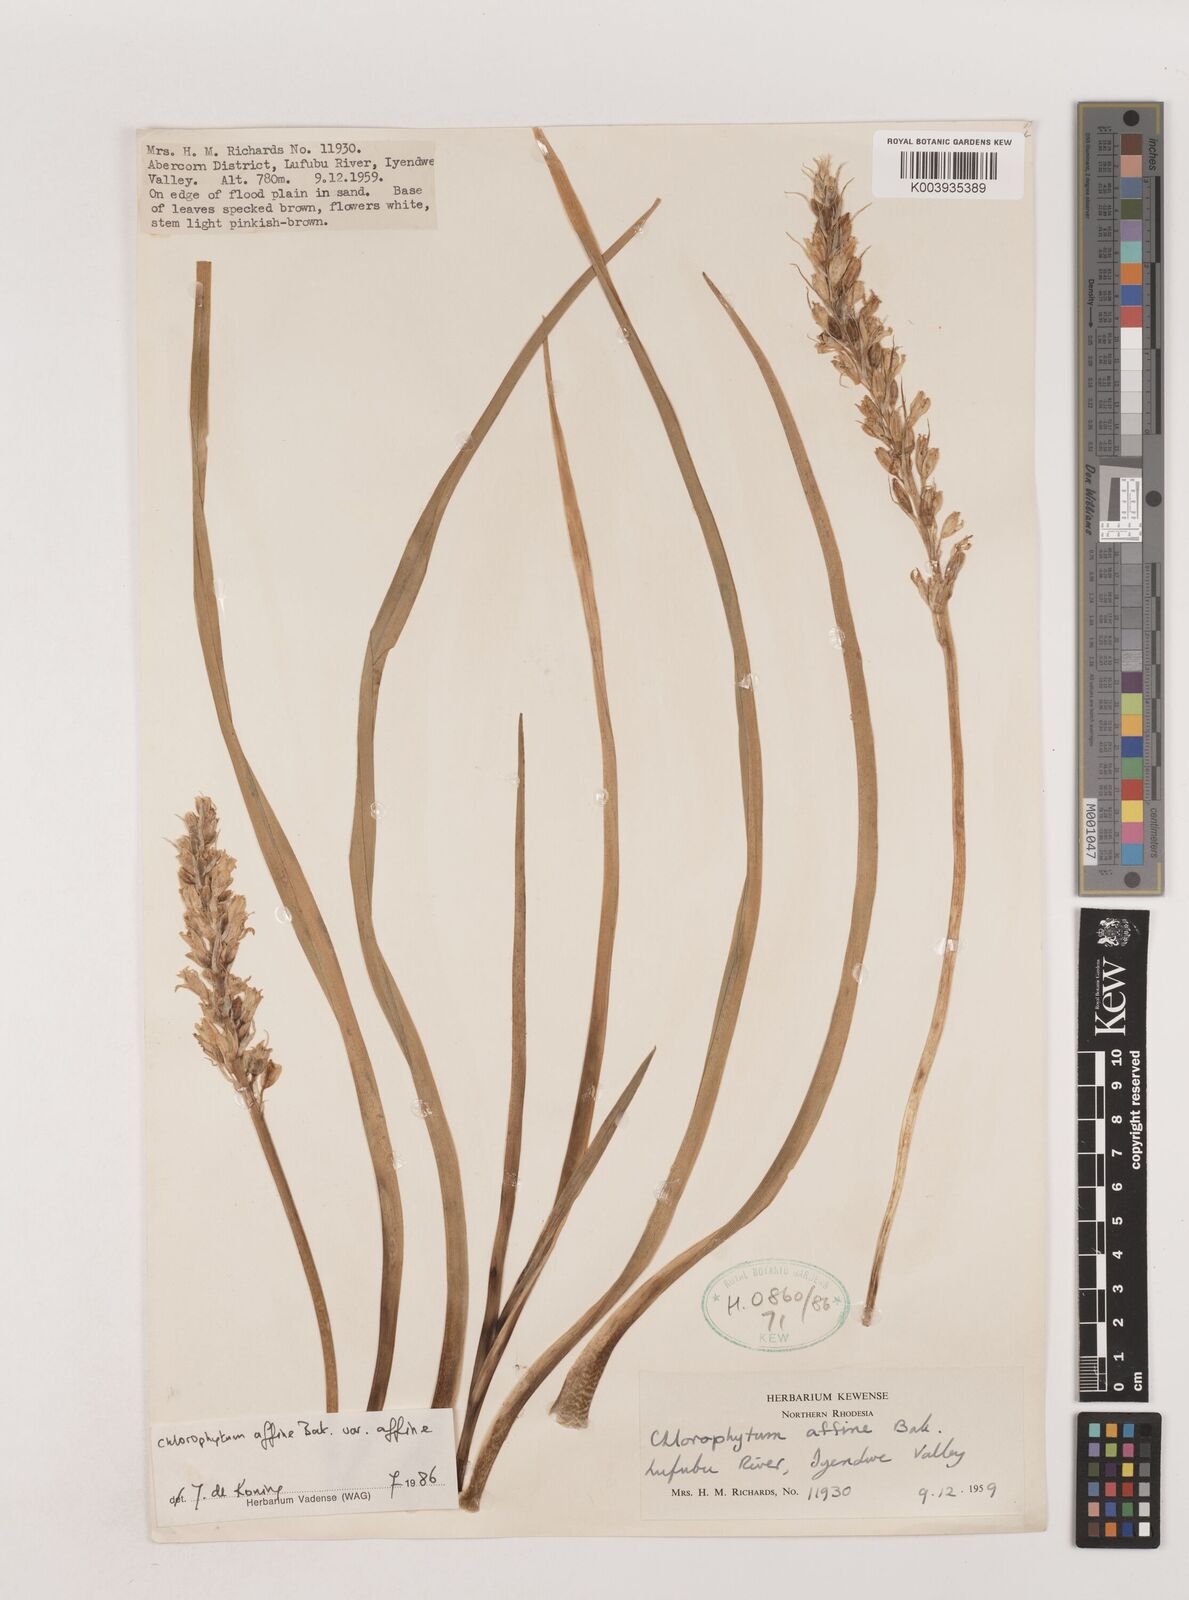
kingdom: Plantae
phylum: Tracheophyta
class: Liliopsida
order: Asparagales
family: Asparagaceae
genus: Chlorophytum
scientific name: Chlorophytum affine
